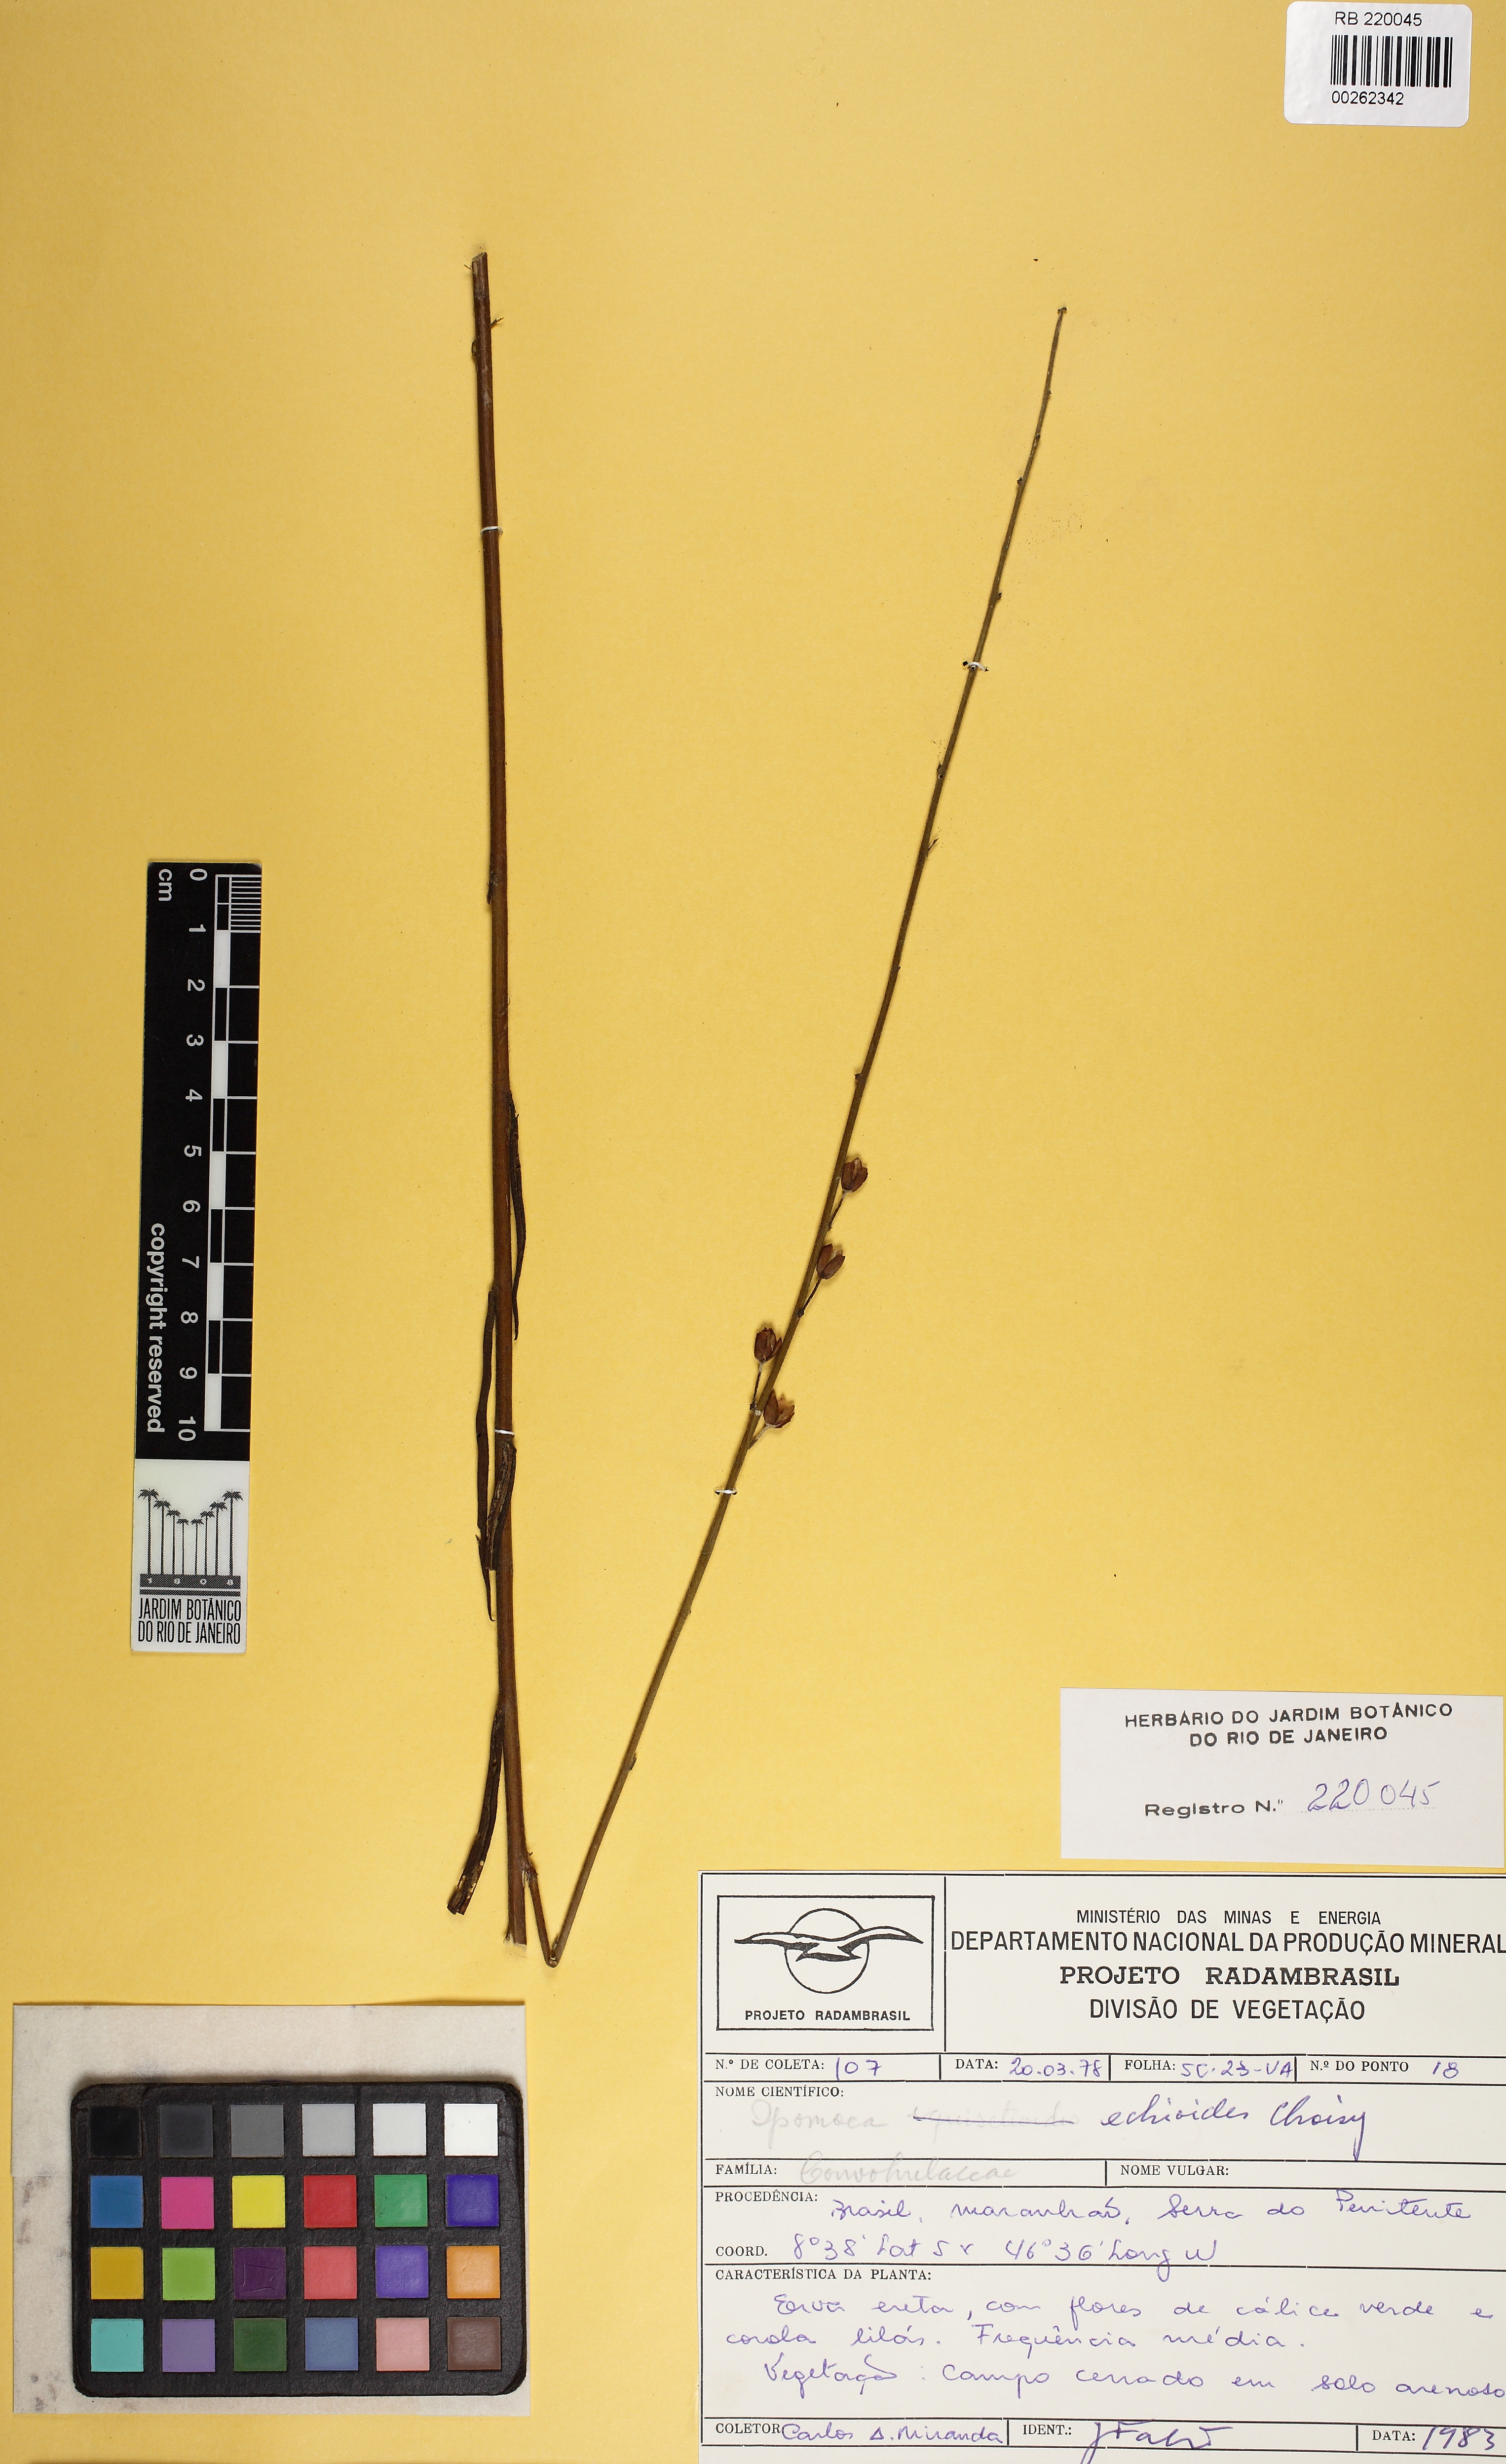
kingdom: Plantae
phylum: Tracheophyta
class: Magnoliopsida
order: Solanales
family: Convolvulaceae
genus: Ipomoea
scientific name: Ipomoea paulistana
